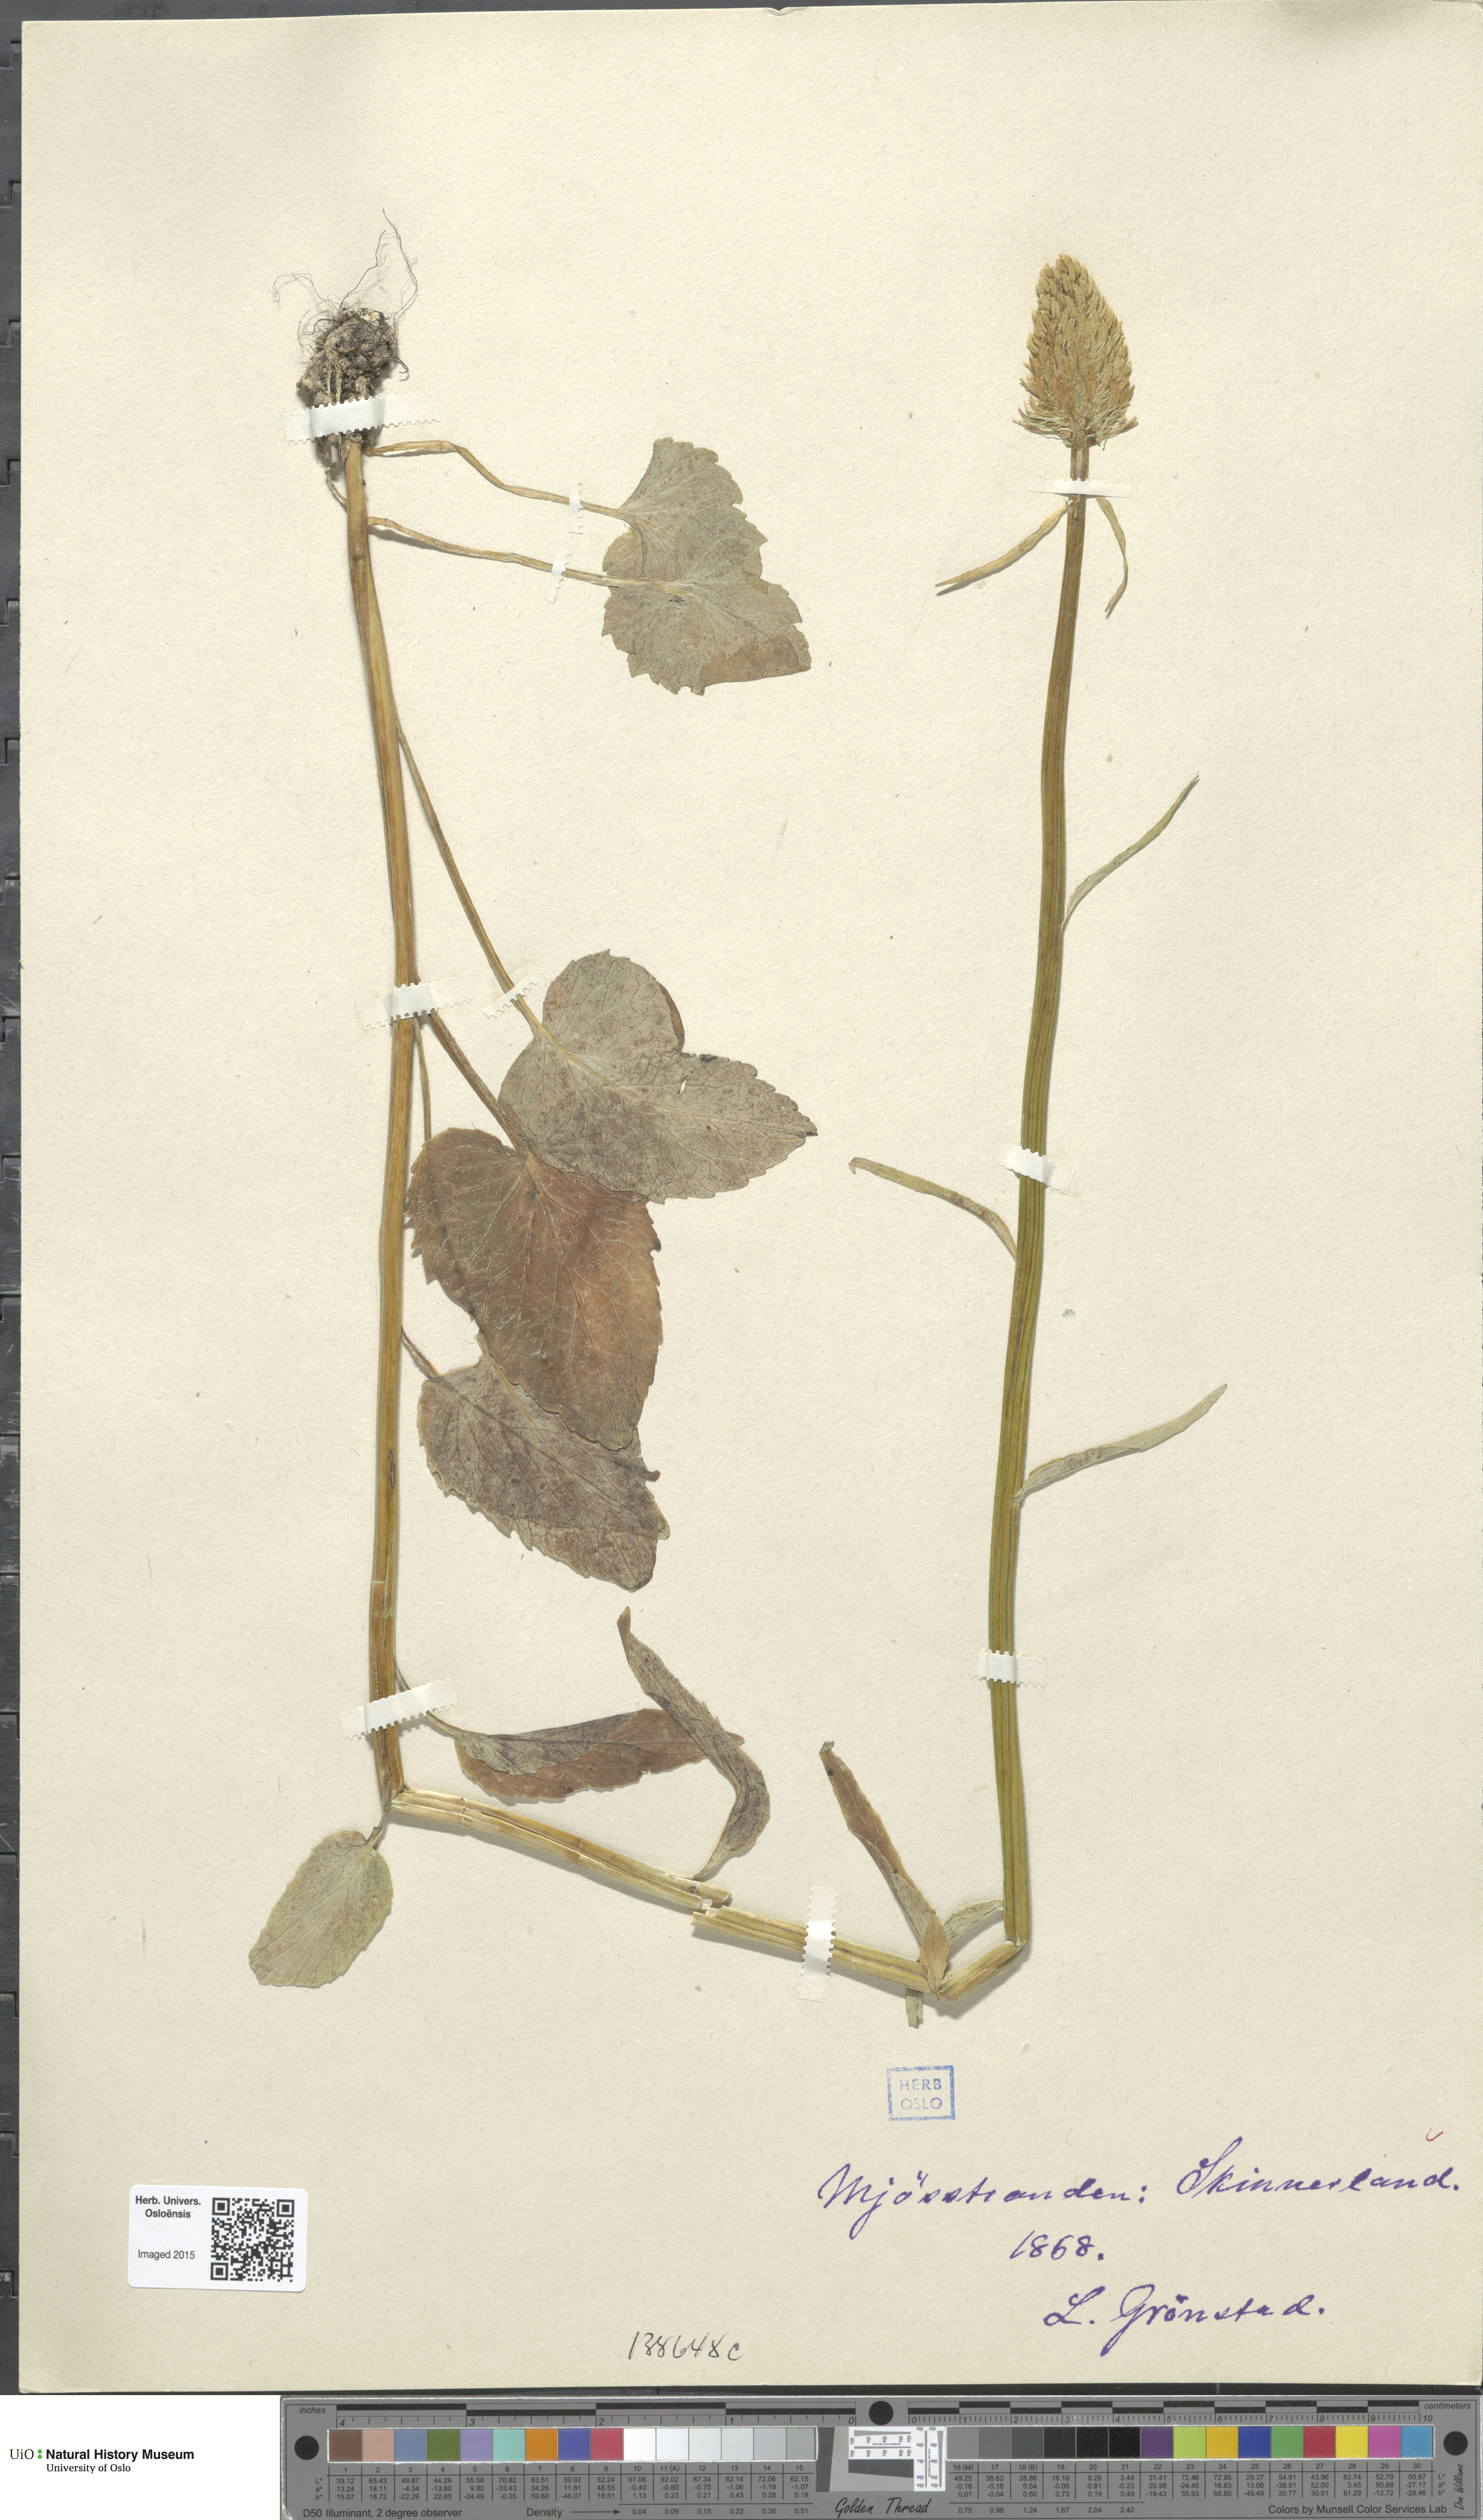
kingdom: Plantae
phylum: Tracheophyta
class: Magnoliopsida
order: Asterales
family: Campanulaceae
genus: Phyteuma
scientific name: Phyteuma spicatum
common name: Spiked rampion
